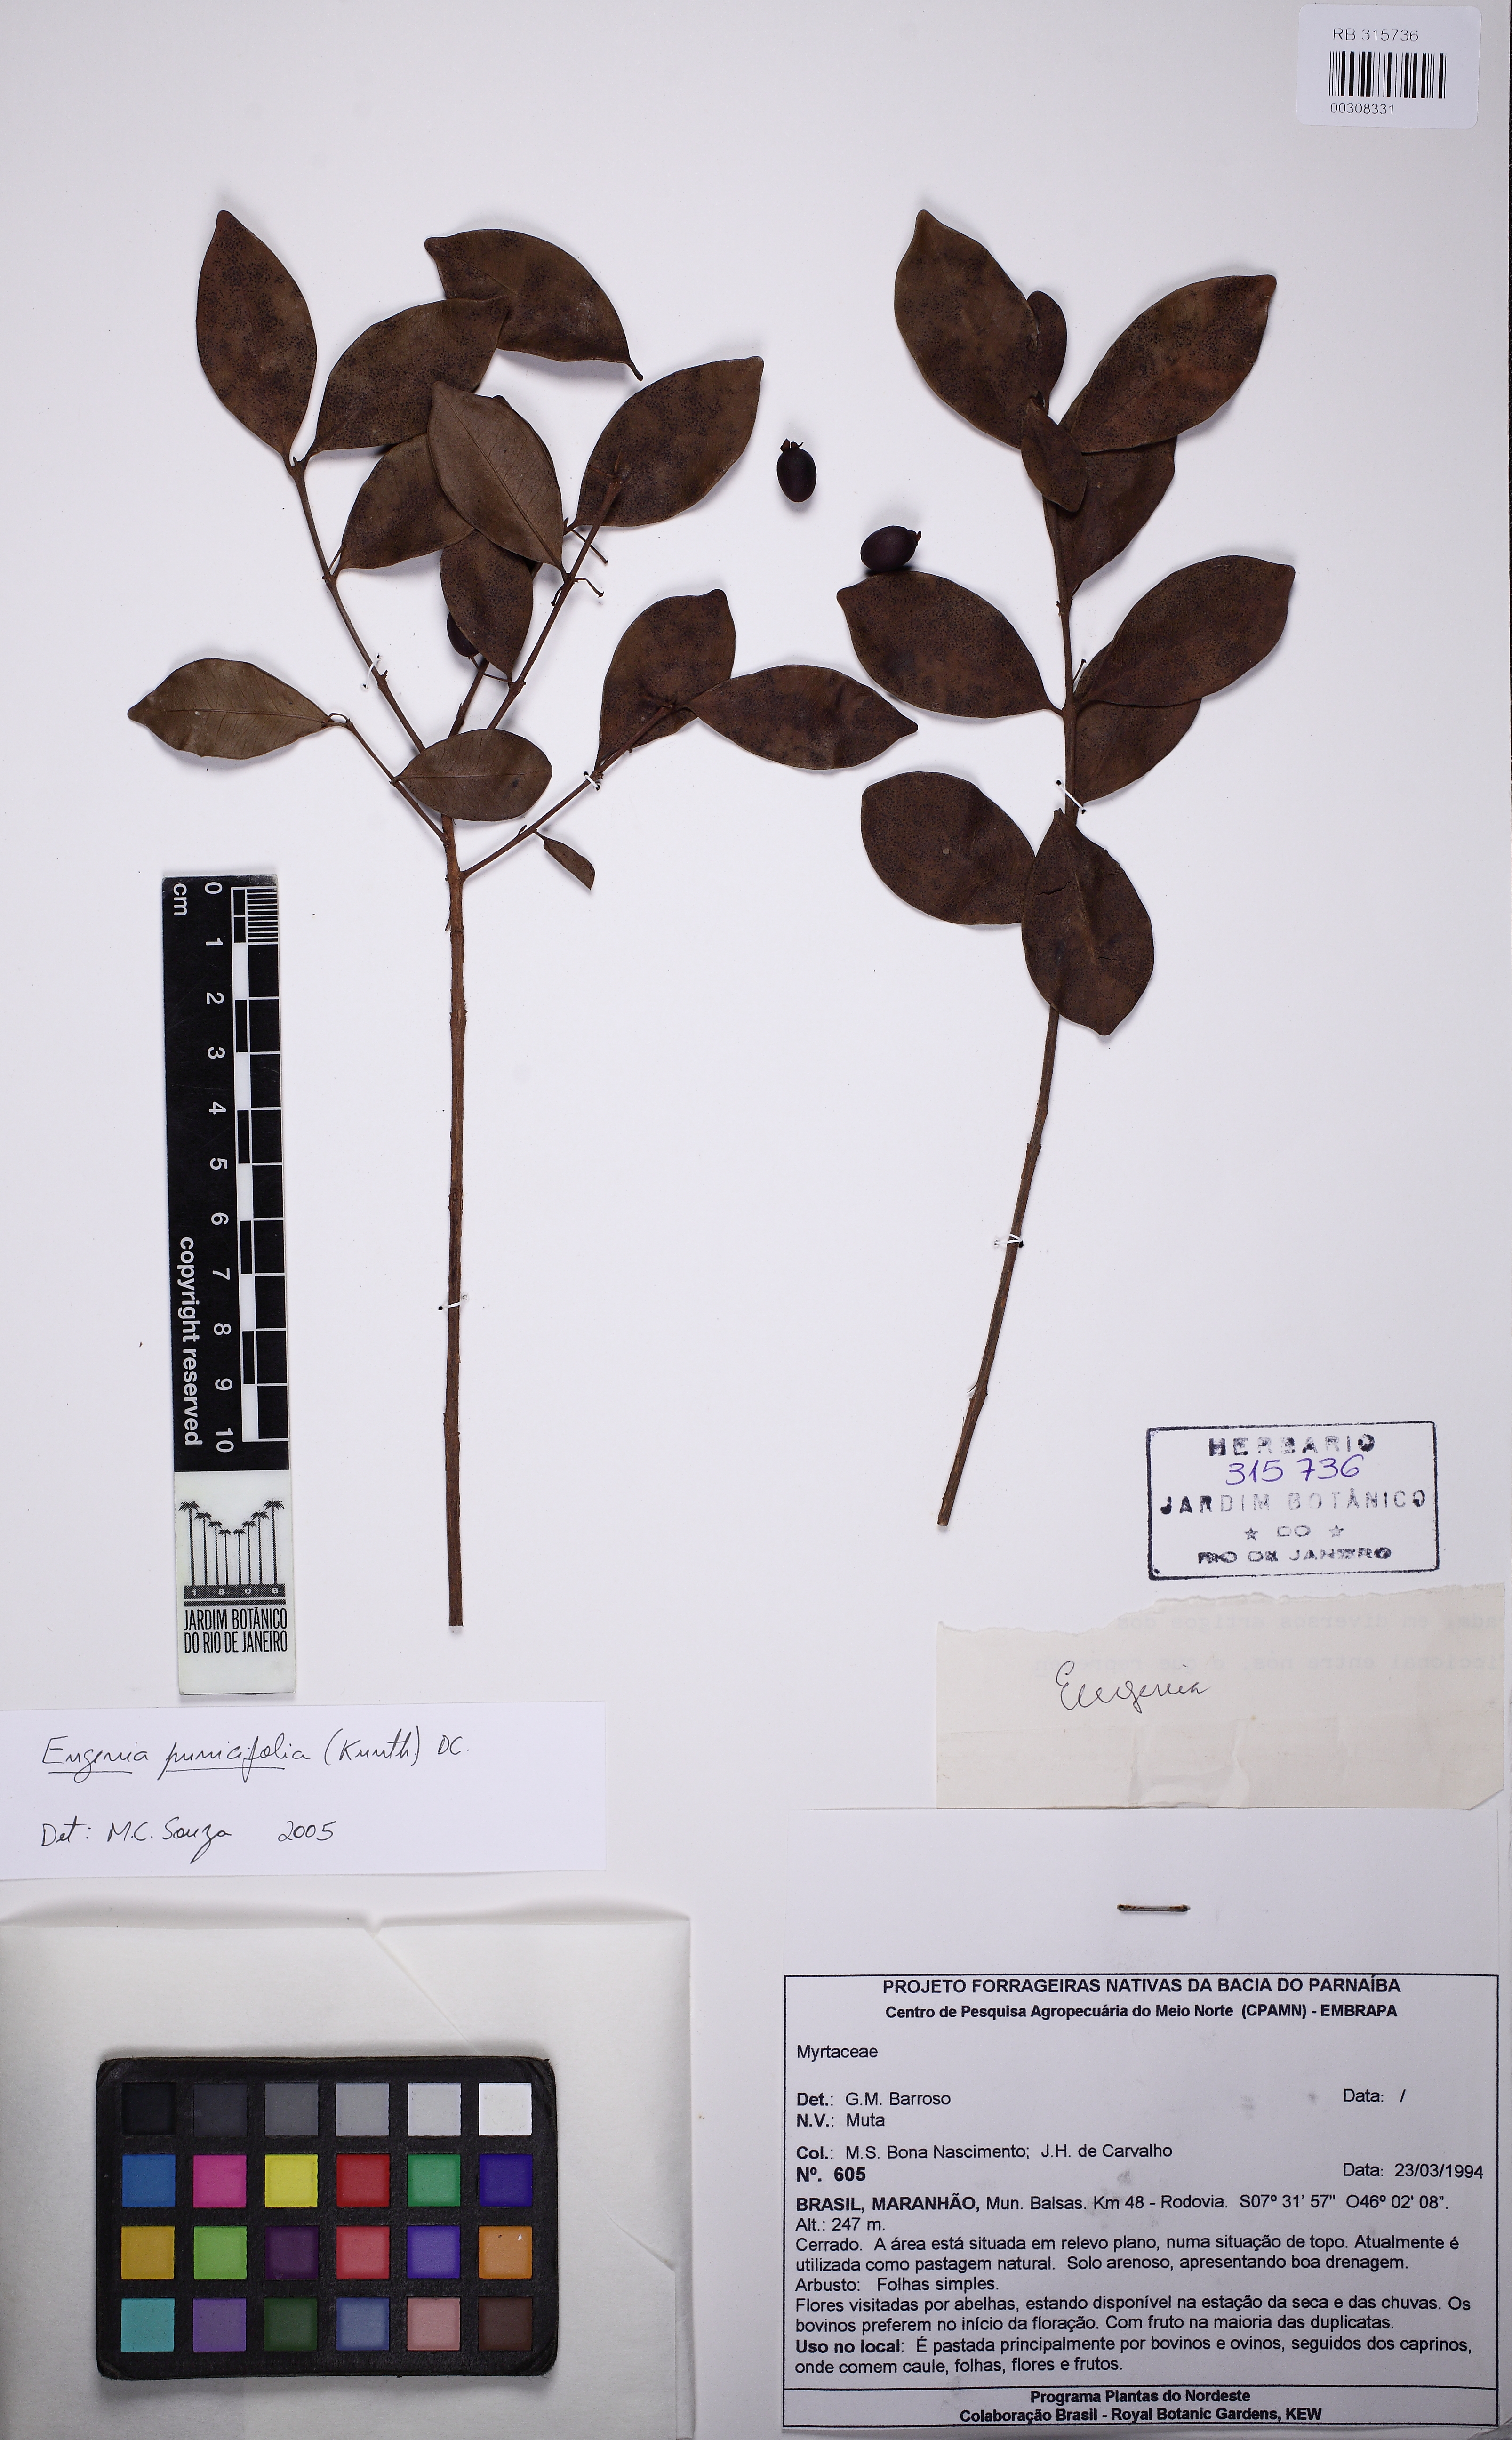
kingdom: Plantae
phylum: Tracheophyta
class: Magnoliopsida
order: Myrtales
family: Myrtaceae
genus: Eugenia
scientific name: Eugenia punicifolia
